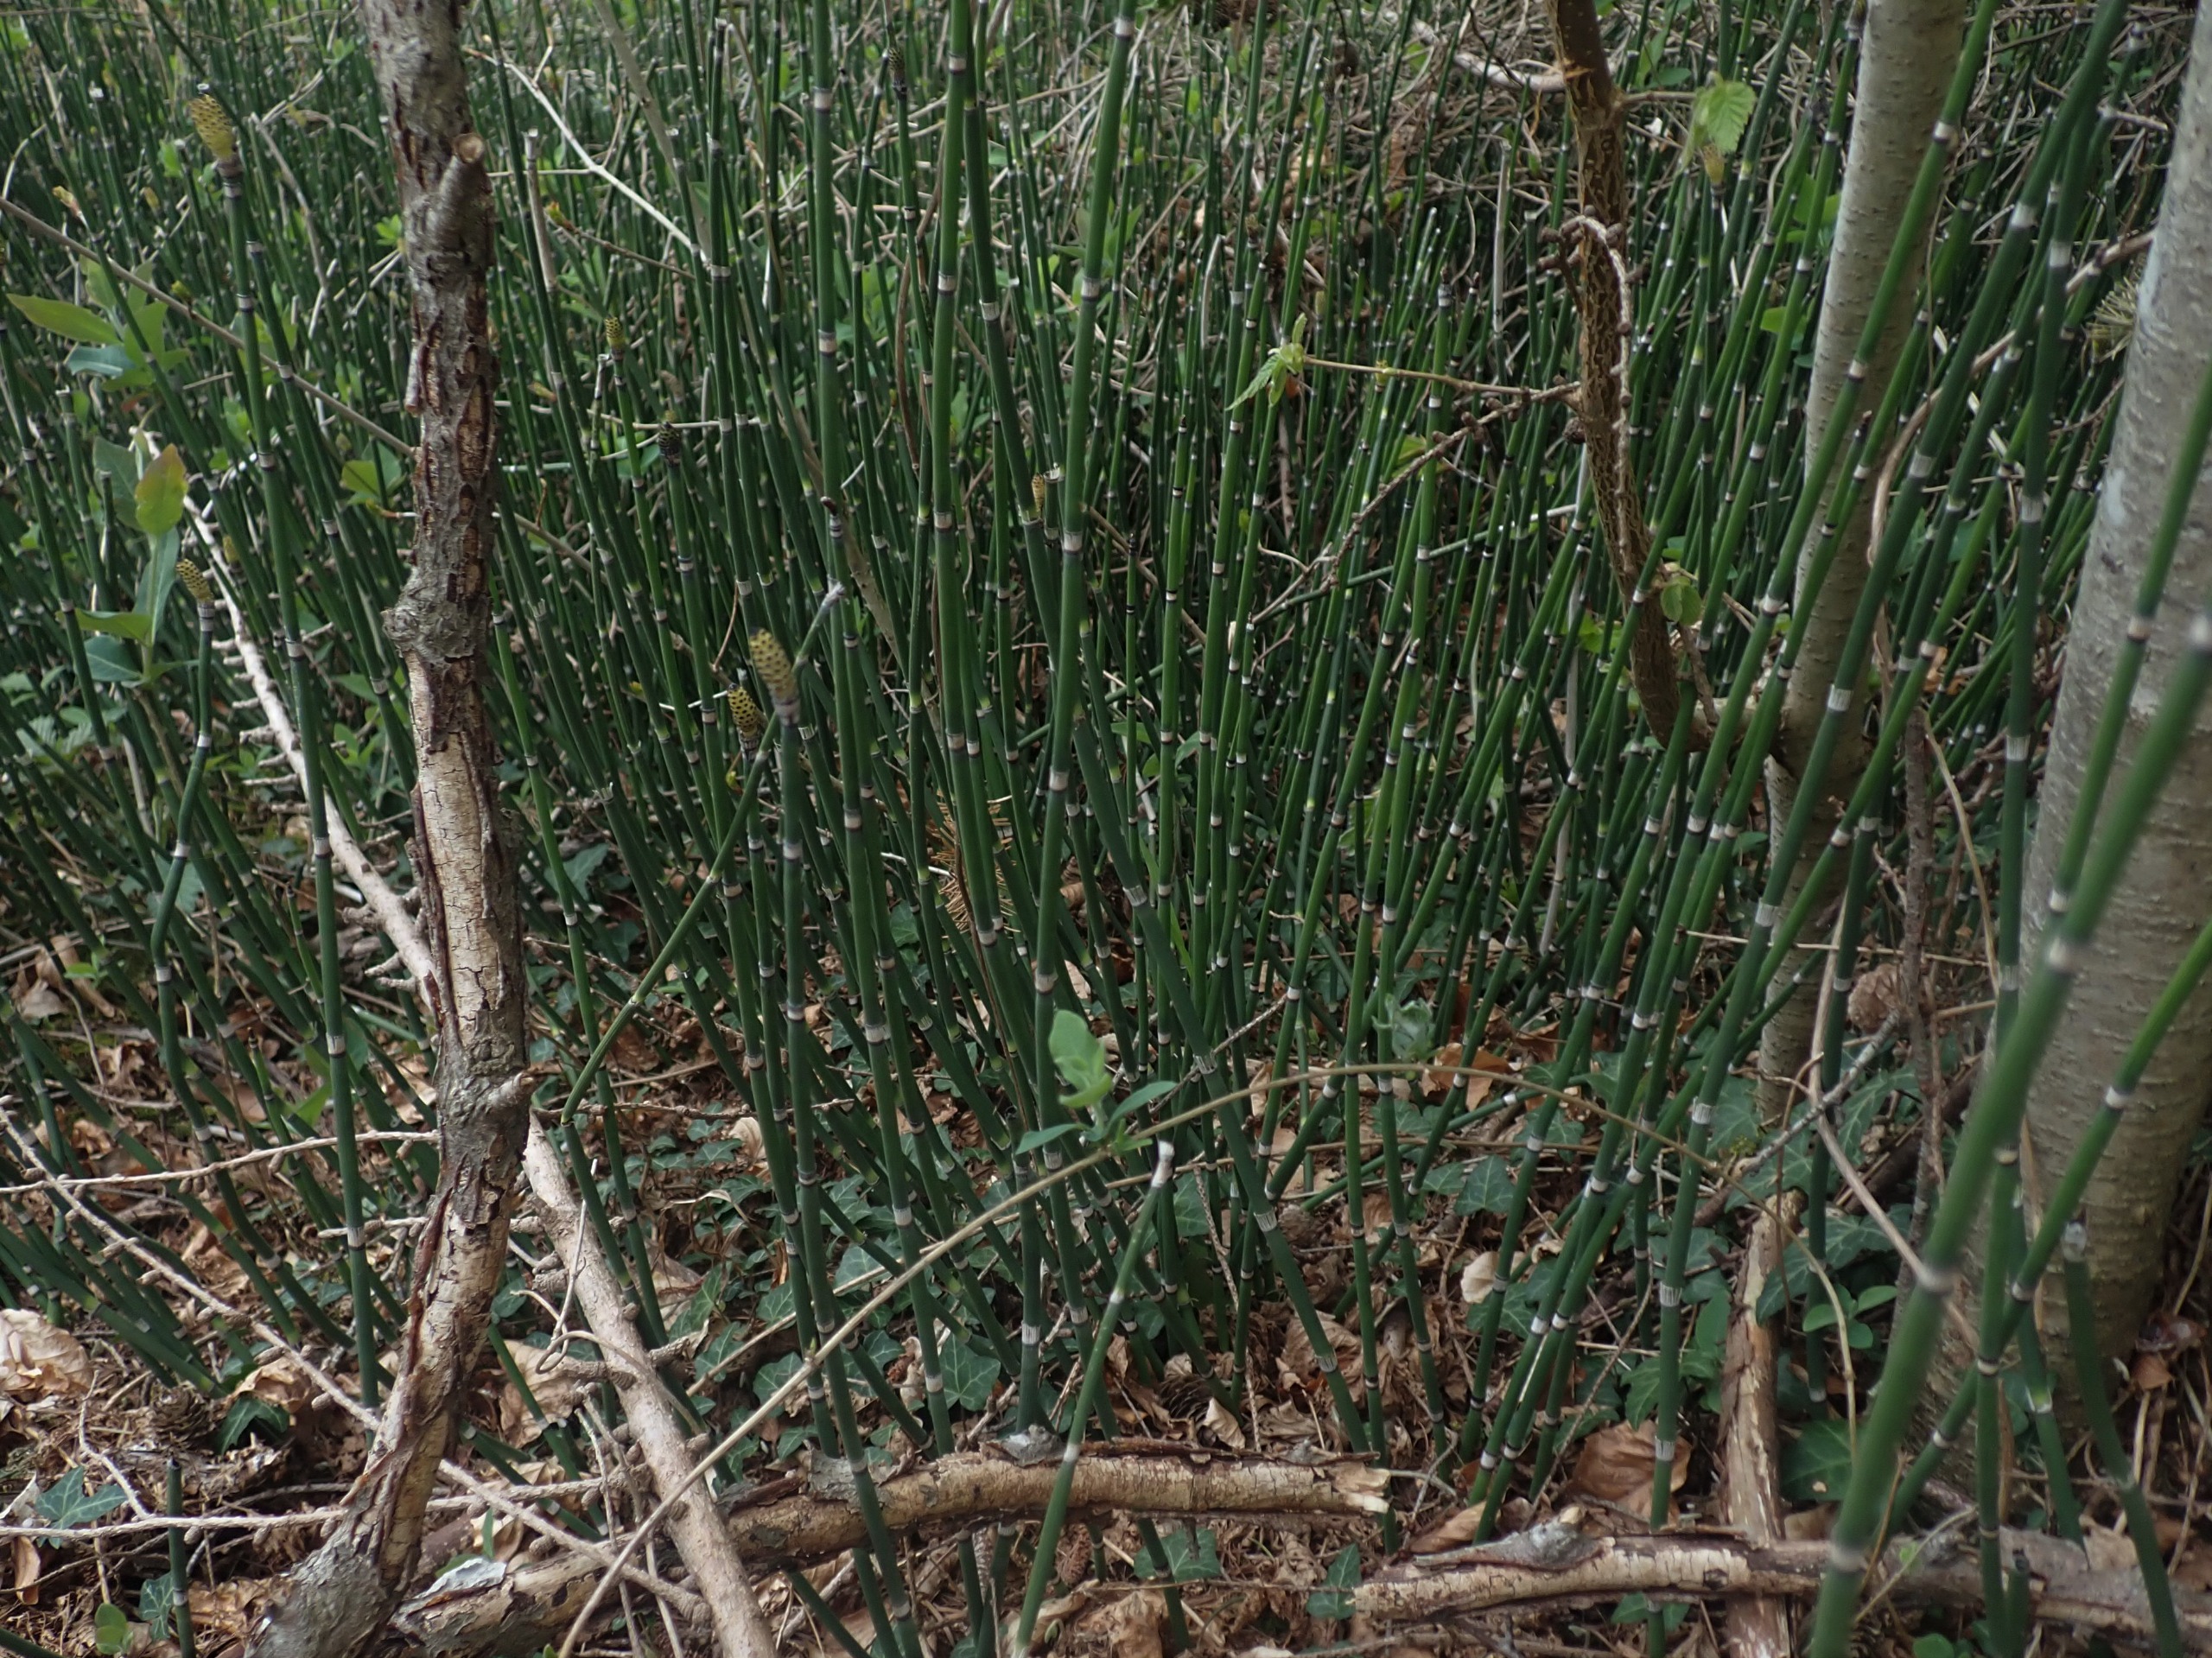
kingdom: Plantae
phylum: Tracheophyta
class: Polypodiopsida
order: Equisetales
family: Equisetaceae
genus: Equisetum
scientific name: Equisetum hyemale
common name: Skavgræs
